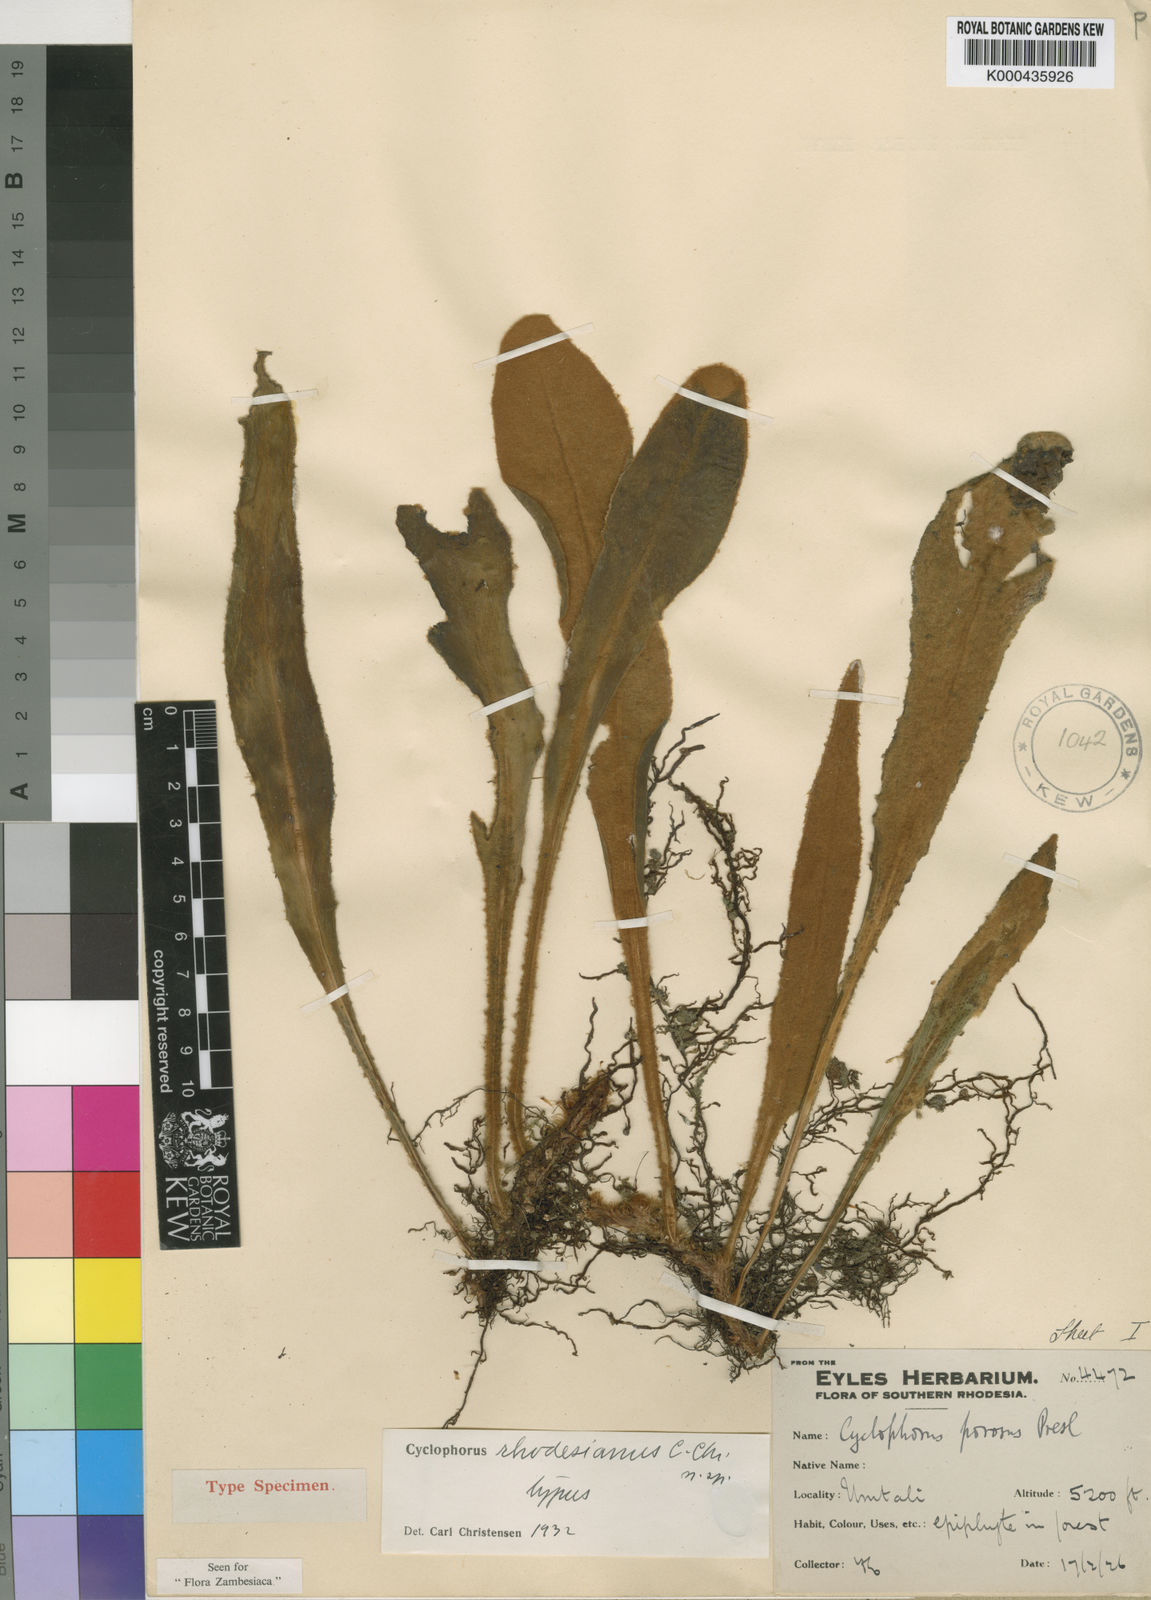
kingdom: Plantae
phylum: Tracheophyta
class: Polypodiopsida
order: Polypodiales
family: Polypodiaceae
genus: Pyrrosia
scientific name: Pyrrosia rhodesiana
